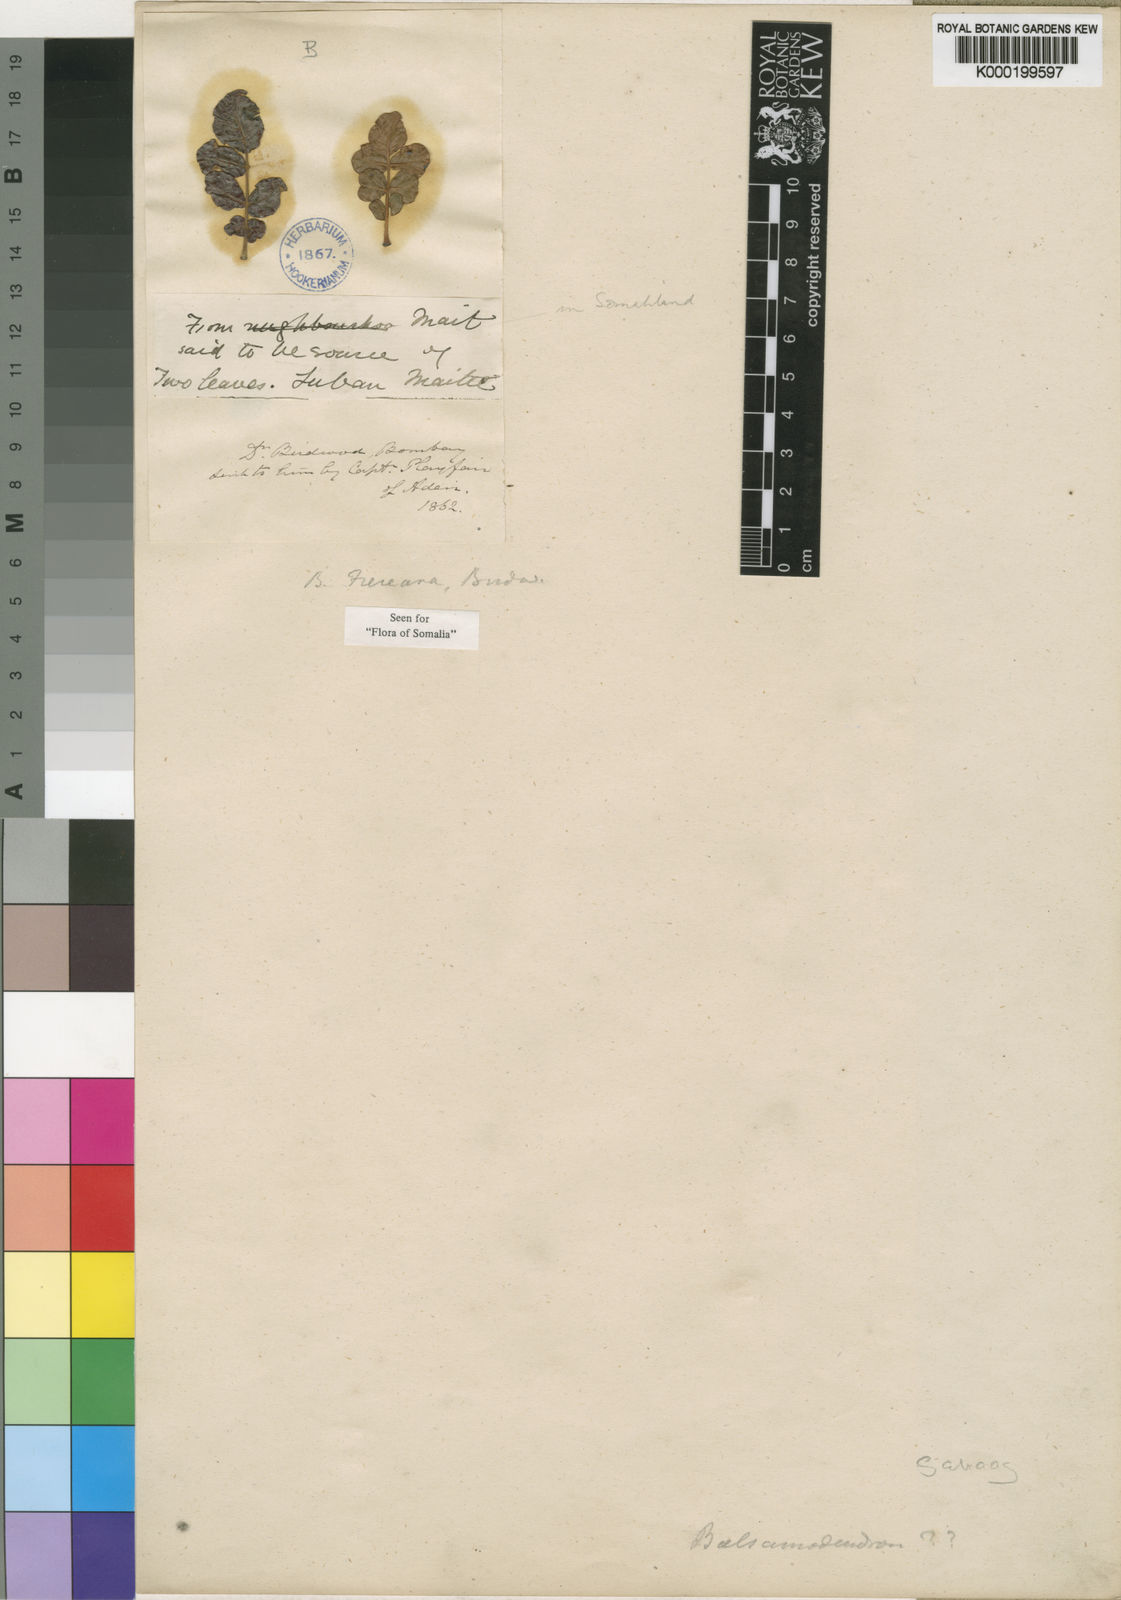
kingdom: Plantae
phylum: Tracheophyta
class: Magnoliopsida
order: Sapindales
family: Burseraceae
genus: Boswellia
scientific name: Boswellia frereana
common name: African elemi
